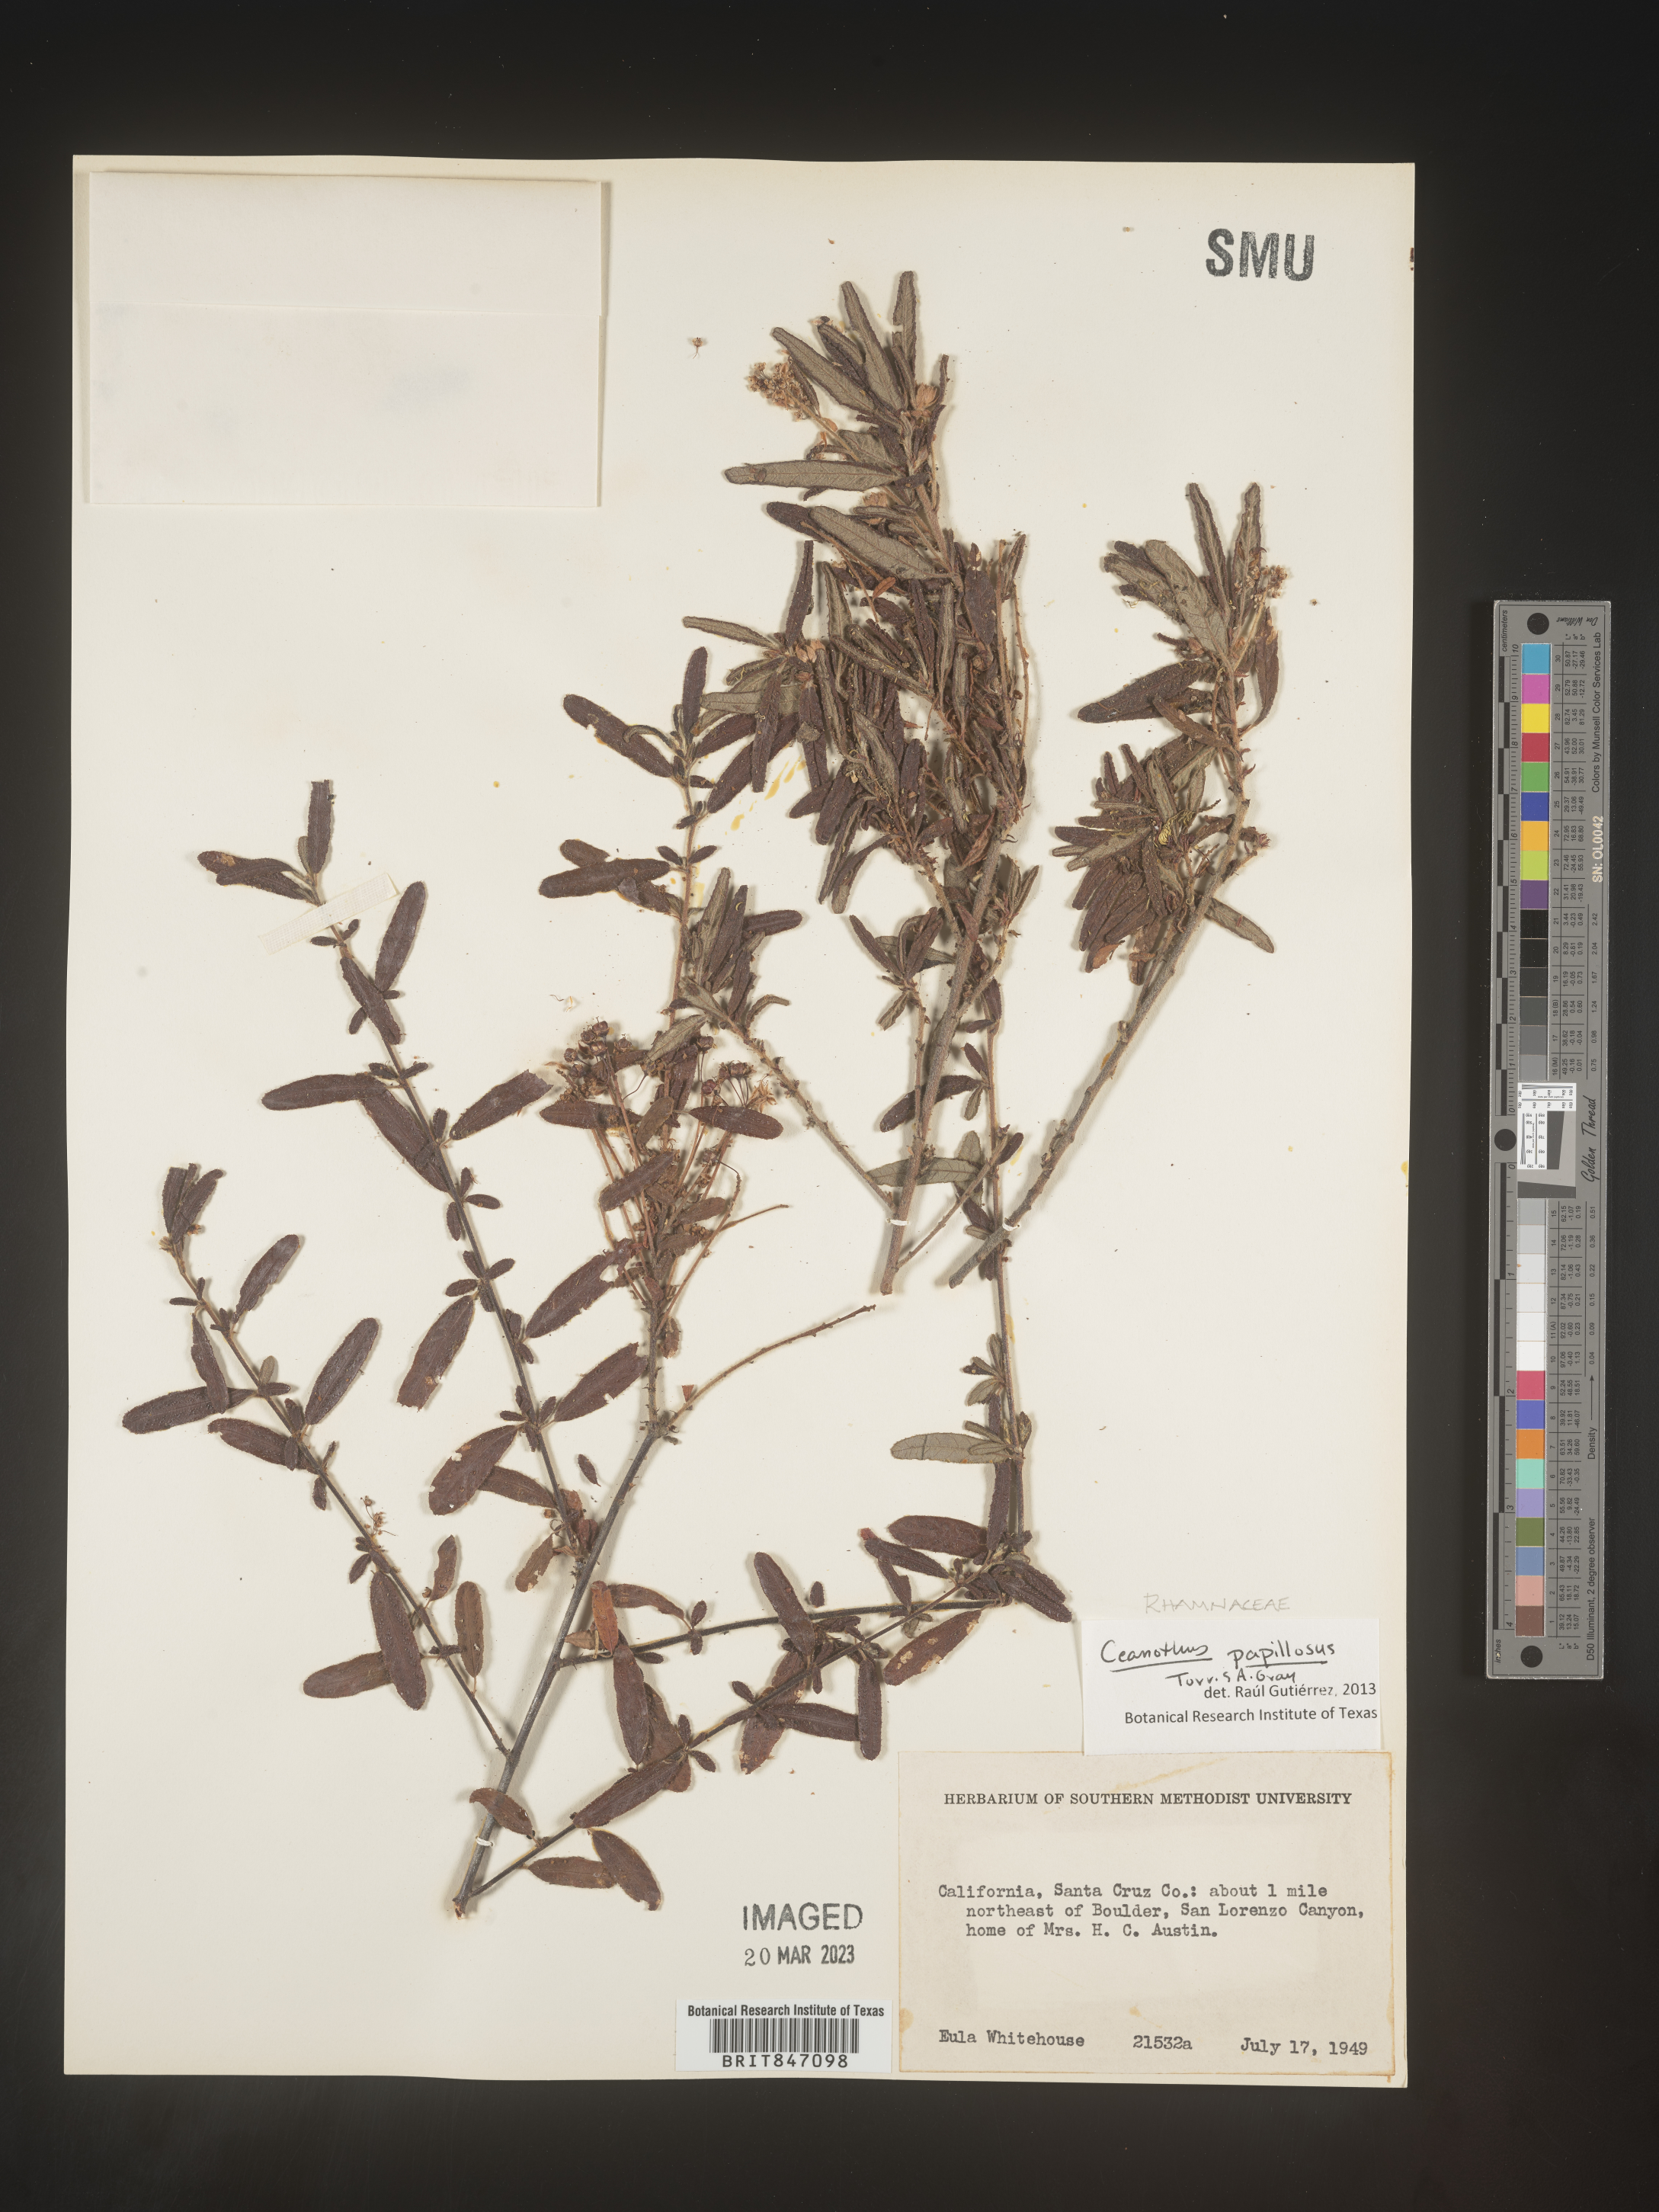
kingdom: Plantae
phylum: Tracheophyta
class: Magnoliopsida
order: Rosales
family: Rhamnaceae
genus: Ceanothus
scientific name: Ceanothus
